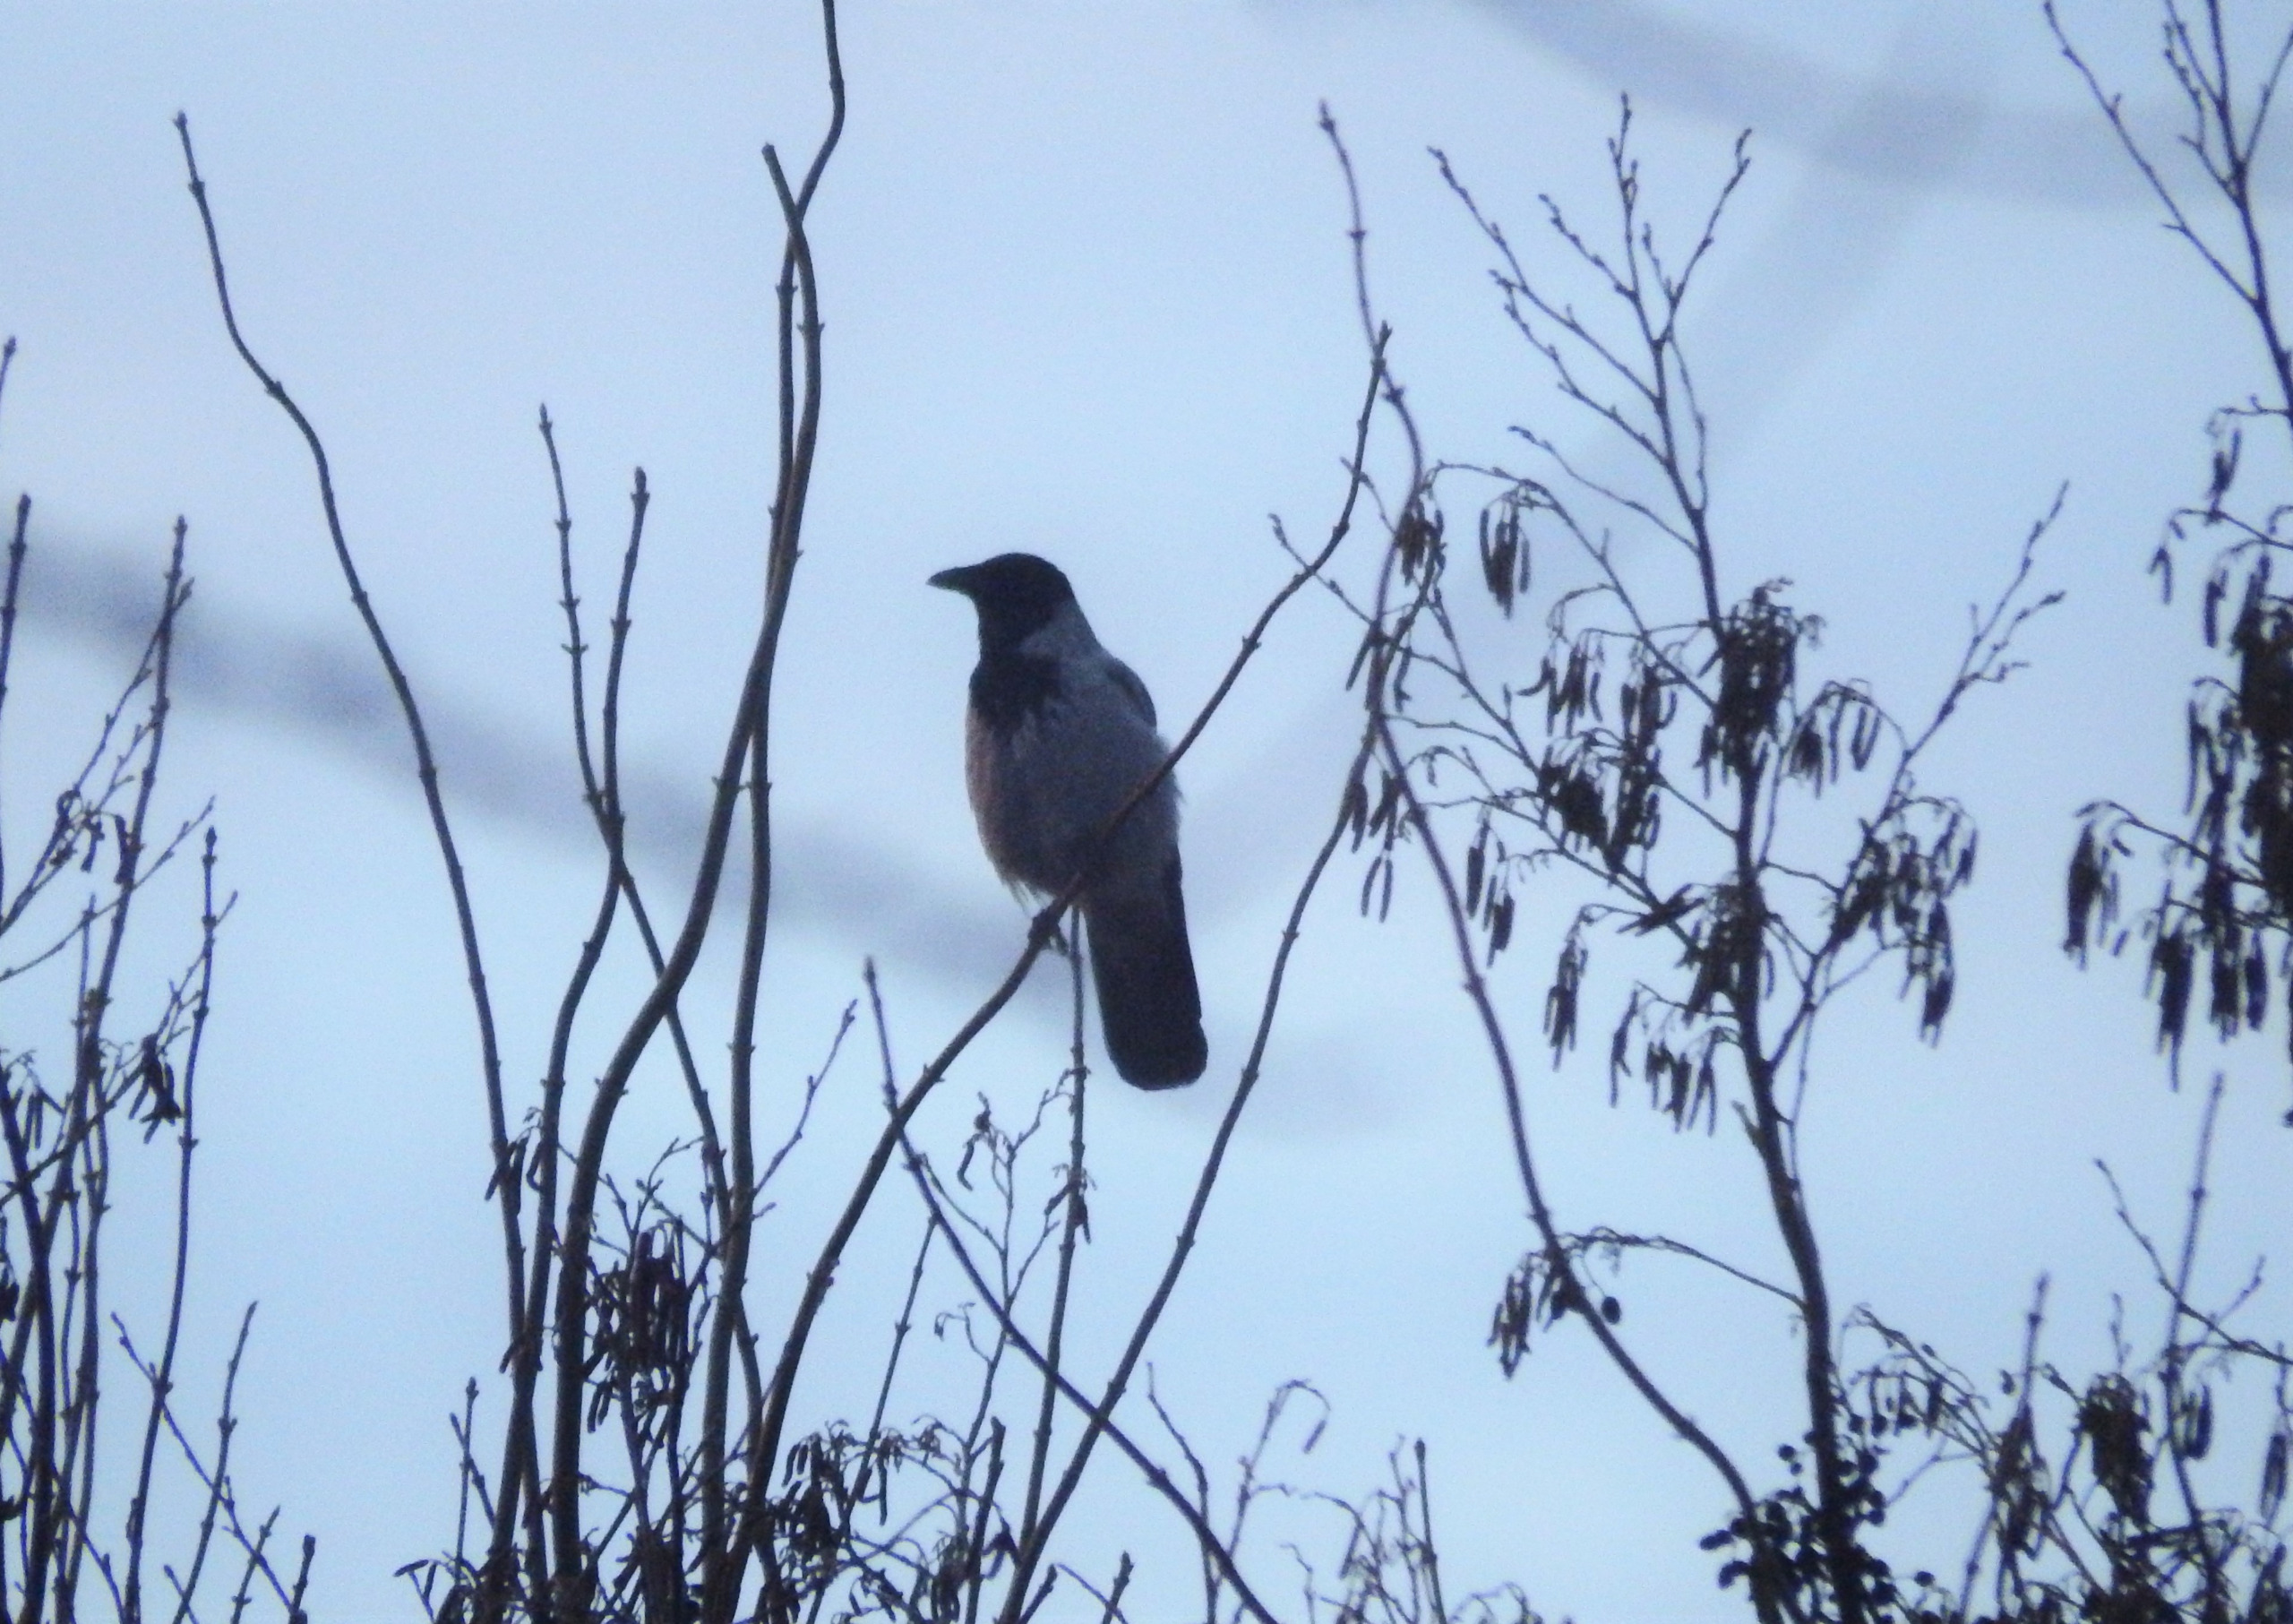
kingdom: Animalia
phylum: Chordata
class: Aves
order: Passeriformes
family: Corvidae
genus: Corvus
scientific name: Corvus cornix
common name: Gråkrage
